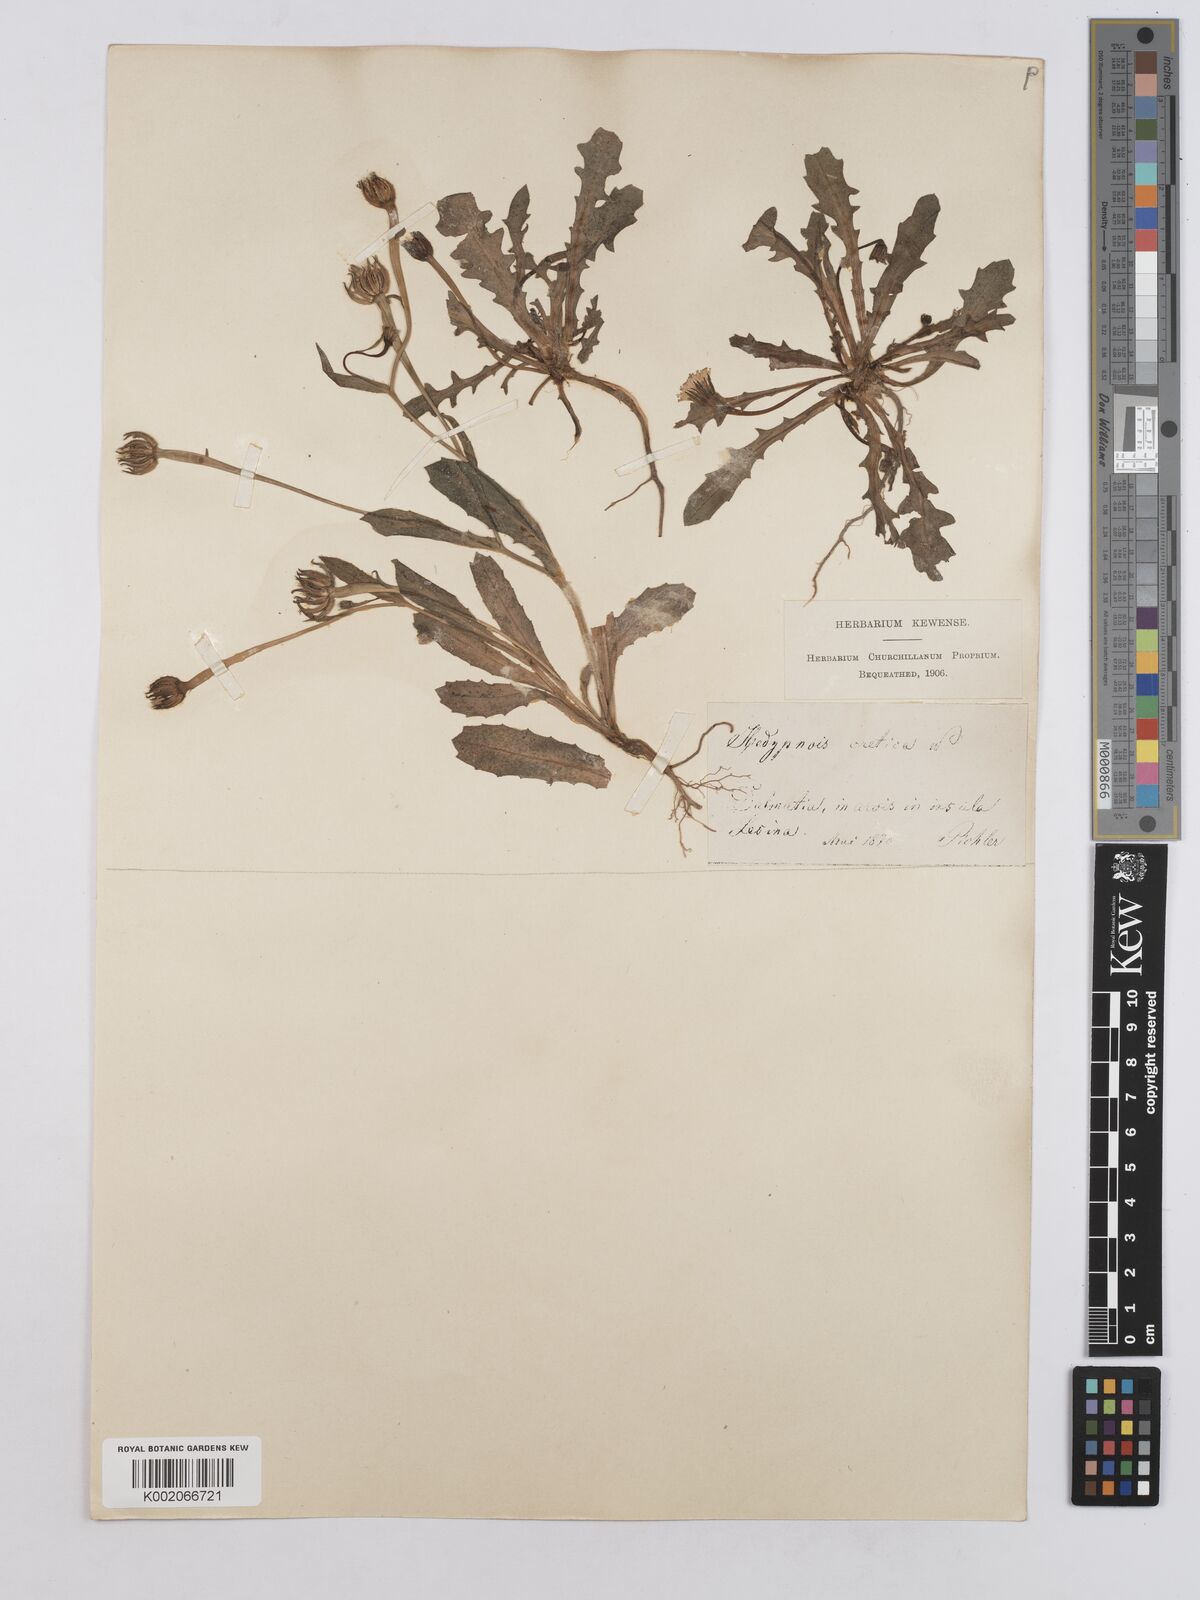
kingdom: Plantae
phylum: Tracheophyta
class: Magnoliopsida
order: Asterales
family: Asteraceae
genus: Hedypnois
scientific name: Hedypnois rhagadioloides
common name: Cretan weed
